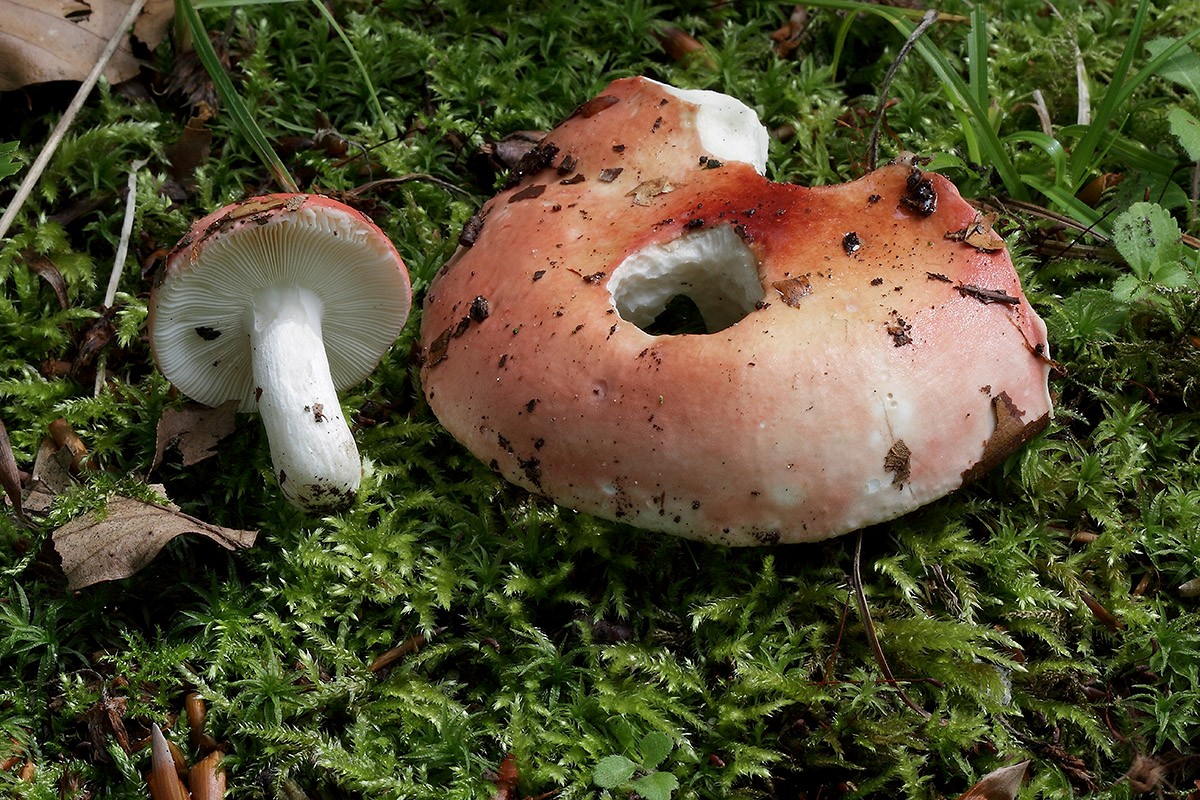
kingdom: Fungi
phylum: Basidiomycota
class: Agaricomycetes
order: Russulales
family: Russulaceae
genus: Russula
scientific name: Russula aurora
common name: rosa skørhat
